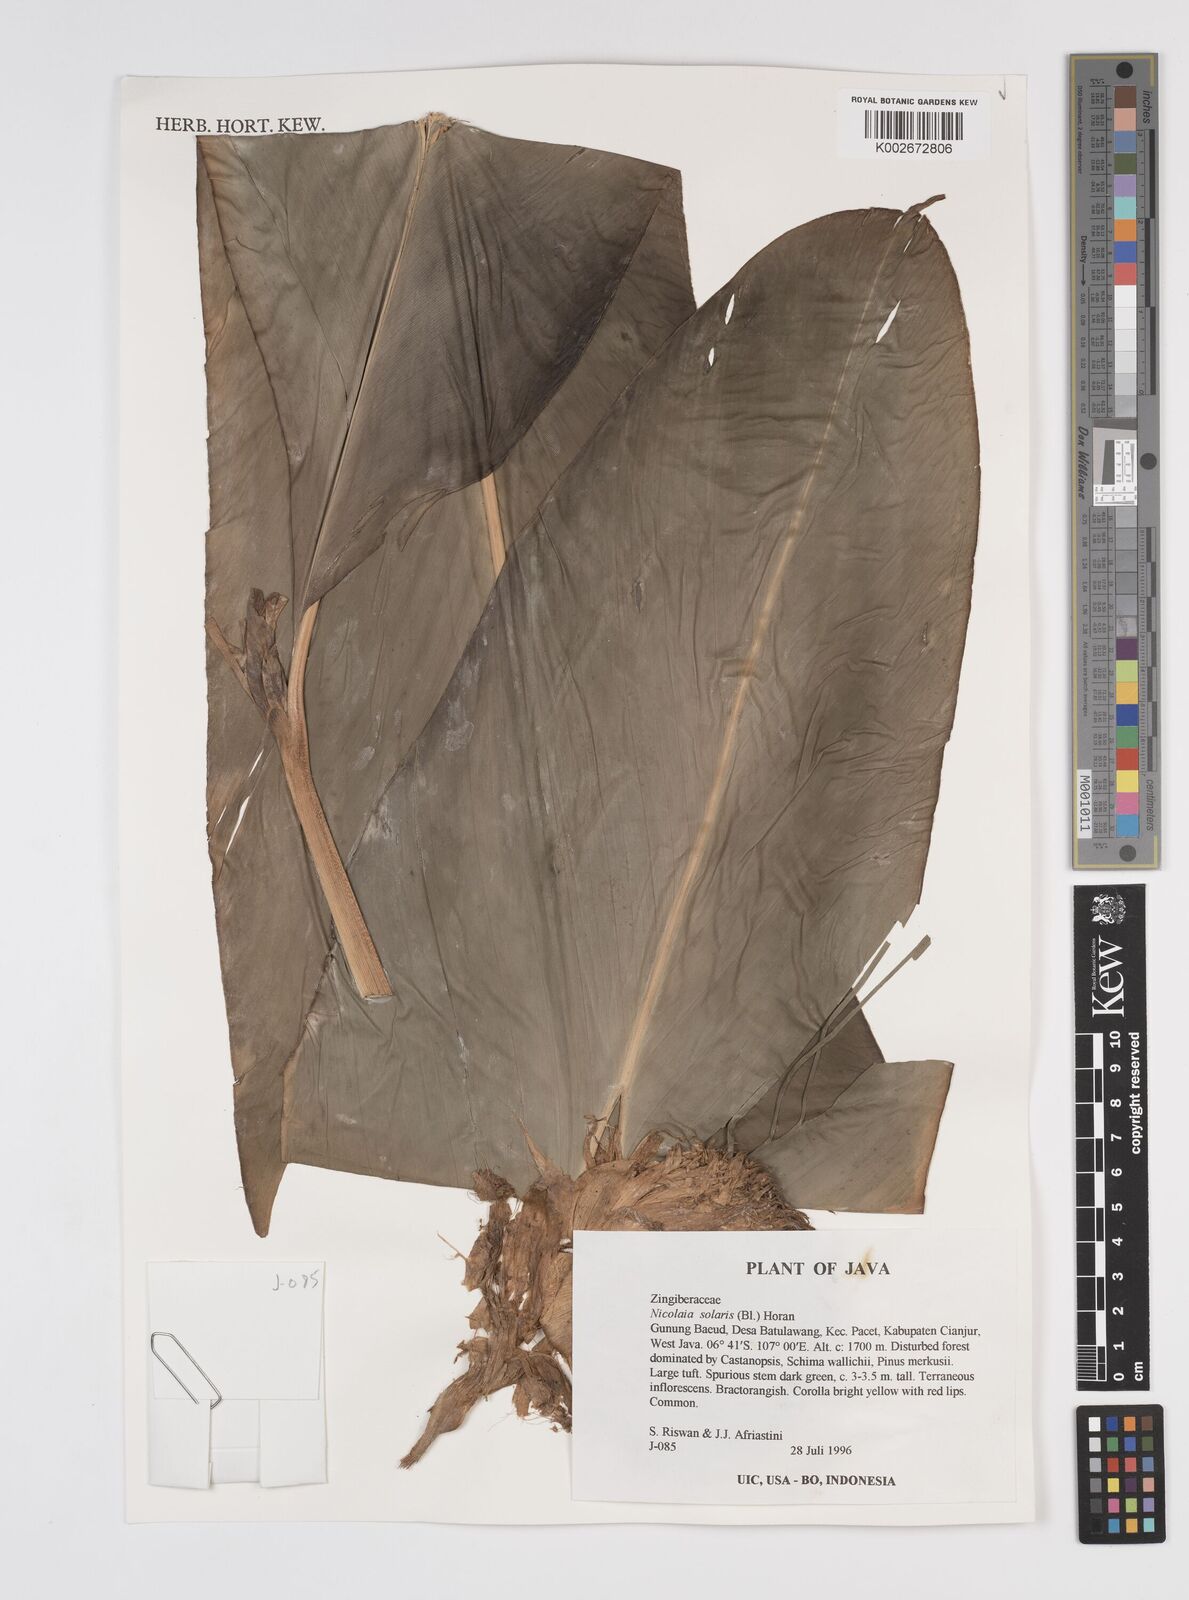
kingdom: Plantae
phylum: Tracheophyta
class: Liliopsida
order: Zingiberales
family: Zingiberaceae
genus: Etlingera
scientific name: Etlingera solaris
